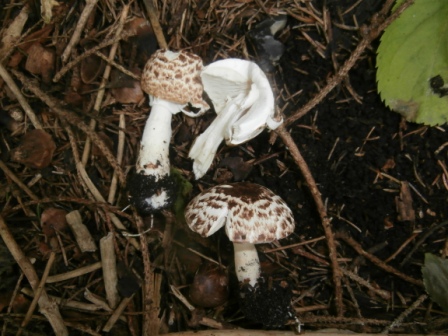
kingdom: Fungi
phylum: Basidiomycota
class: Agaricomycetes
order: Agaricales
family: Agaricaceae
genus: Agaricus
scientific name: Agaricus impudicus
